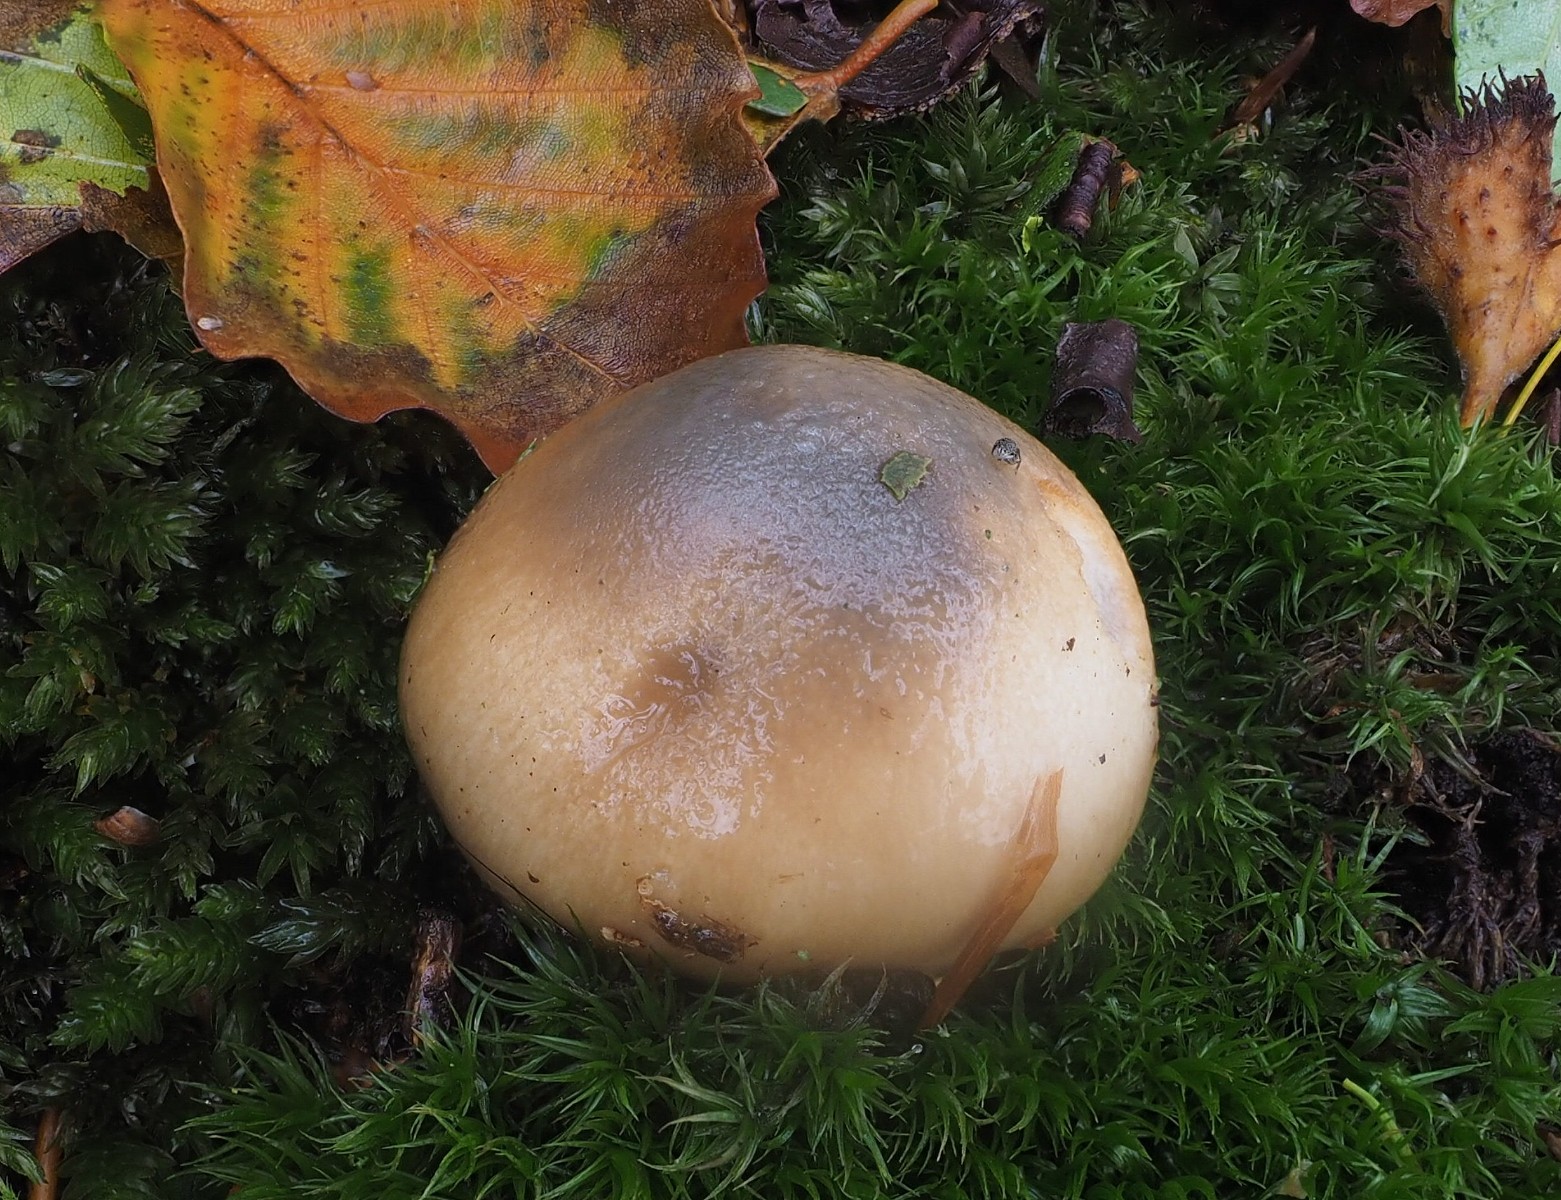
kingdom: Fungi
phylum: Basidiomycota
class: Agaricomycetes
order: Agaricales
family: Cortinariaceae
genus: Cortinarius
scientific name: Cortinarius elatior
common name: høj slørhat
